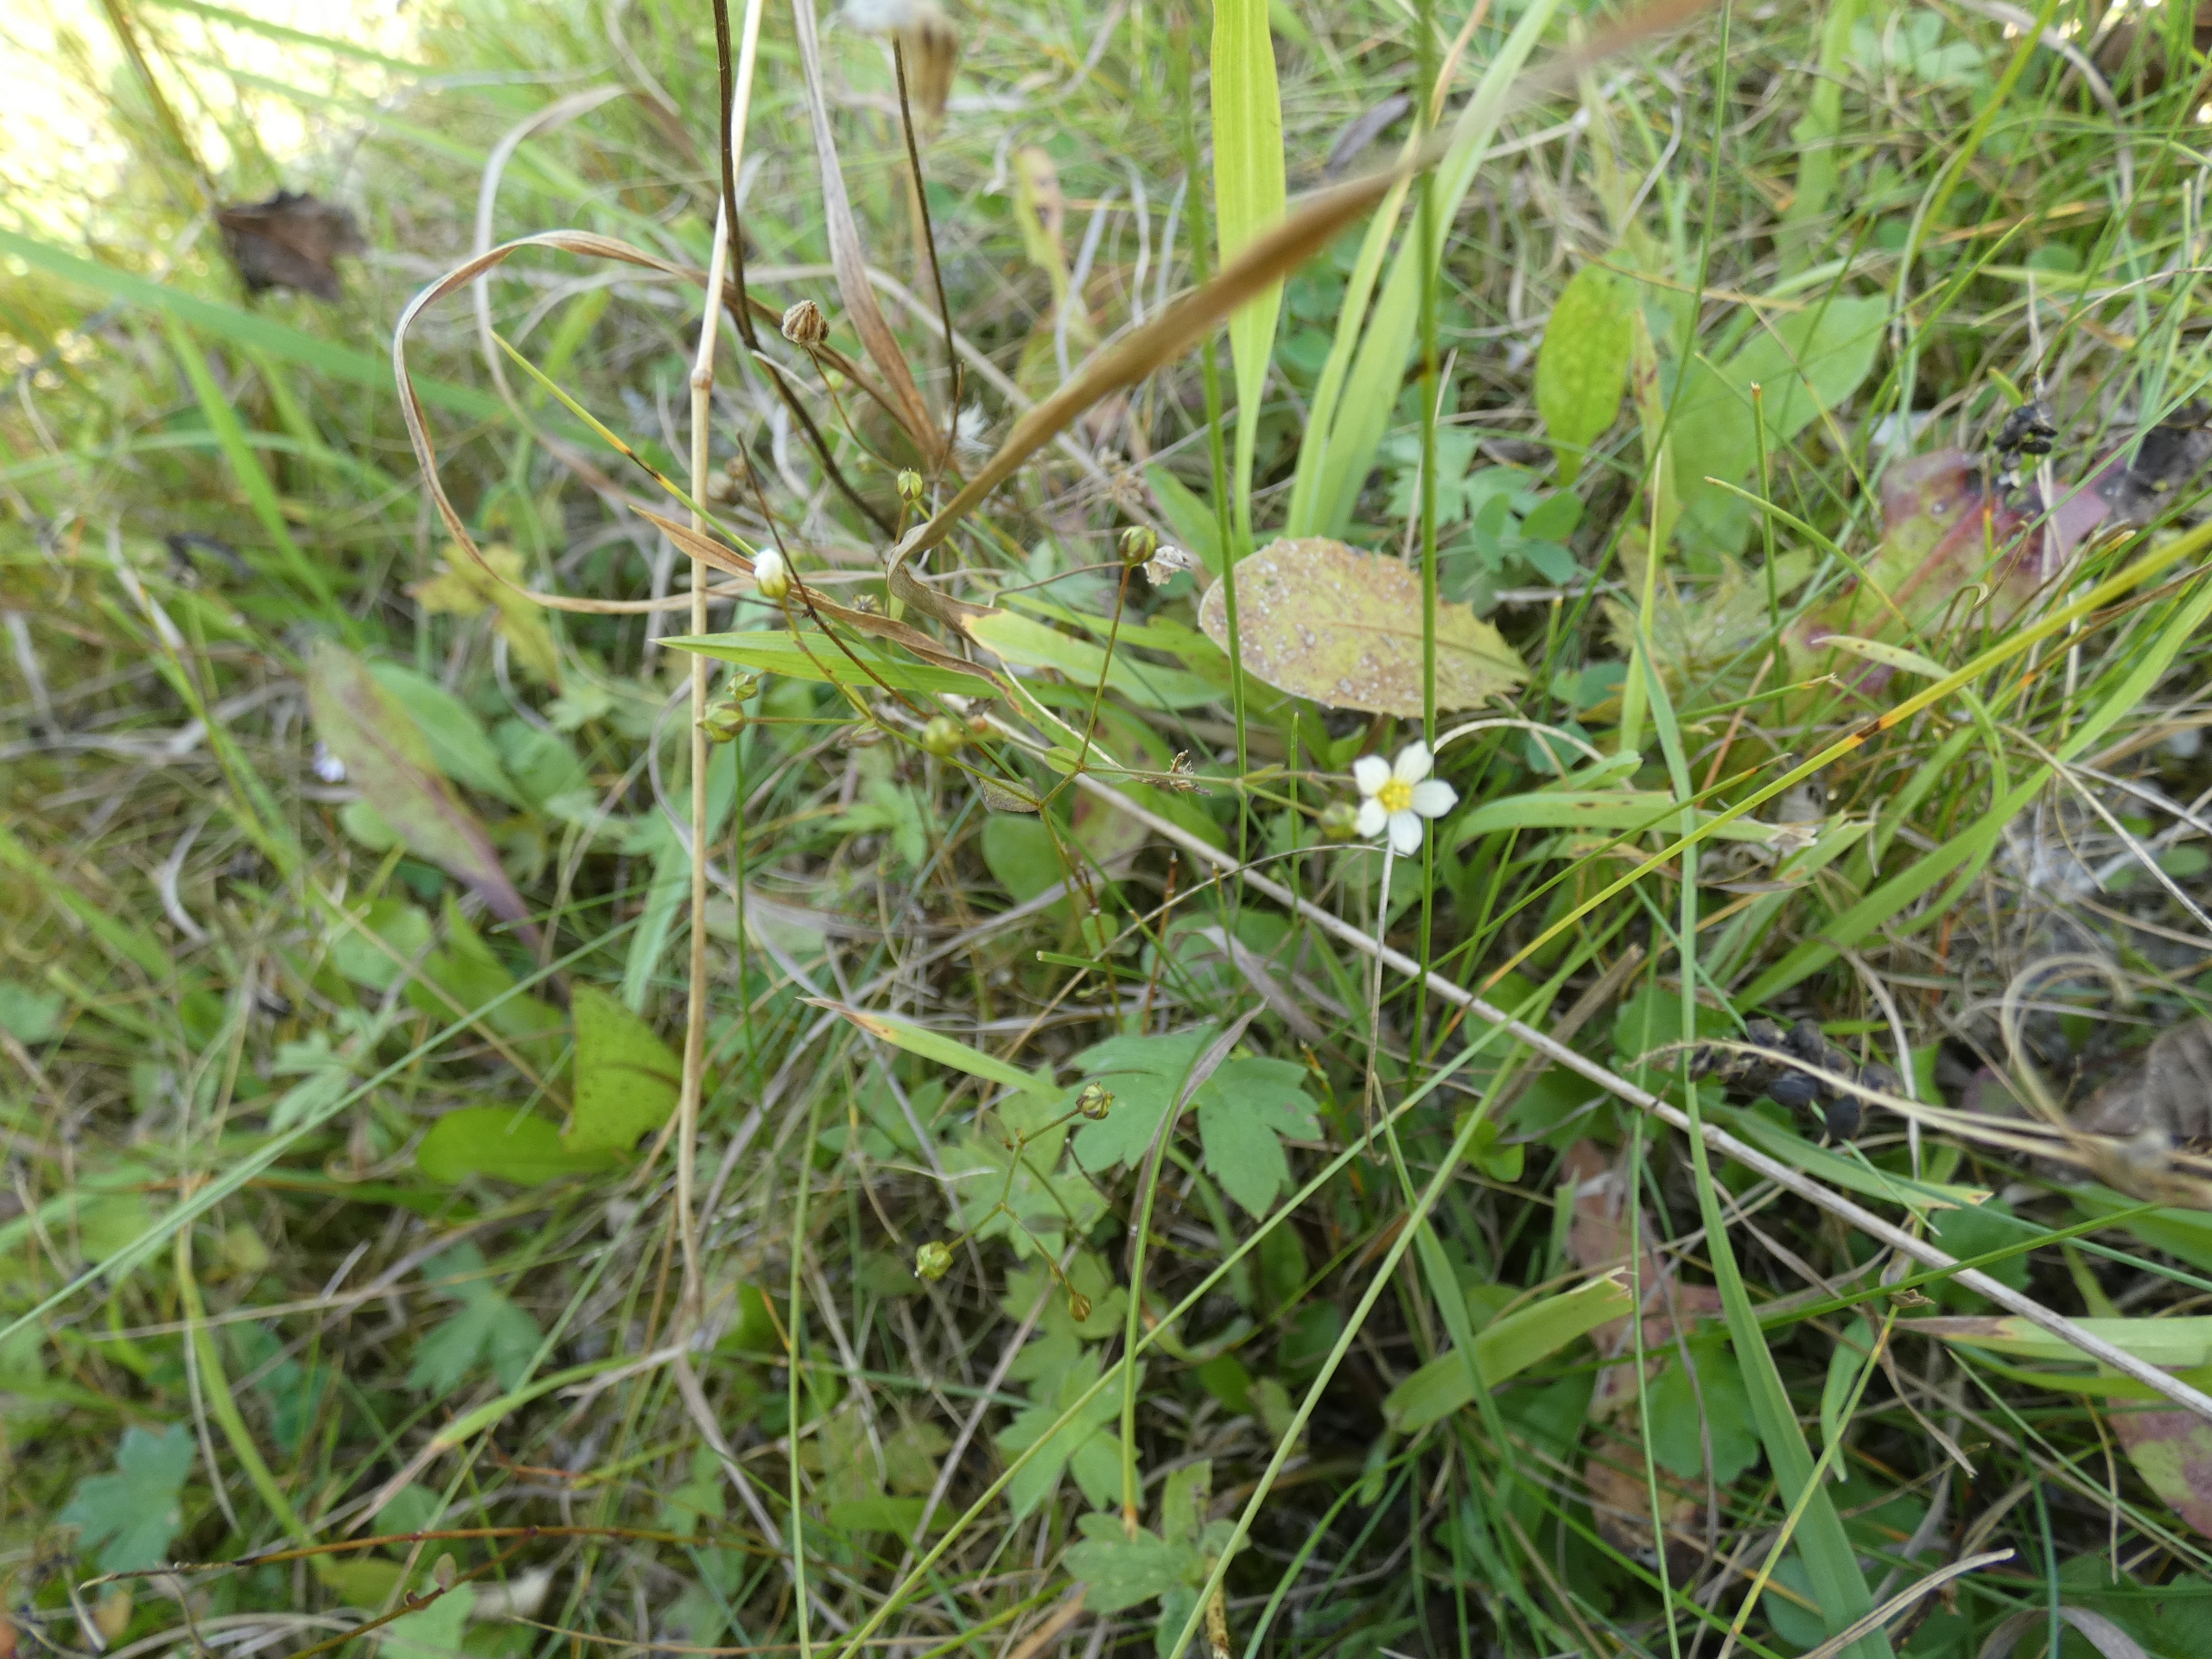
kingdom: Plantae
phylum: Tracheophyta
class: Magnoliopsida
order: Malpighiales
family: Linaceae
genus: Linum
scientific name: Linum catharticum
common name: Vild hør
